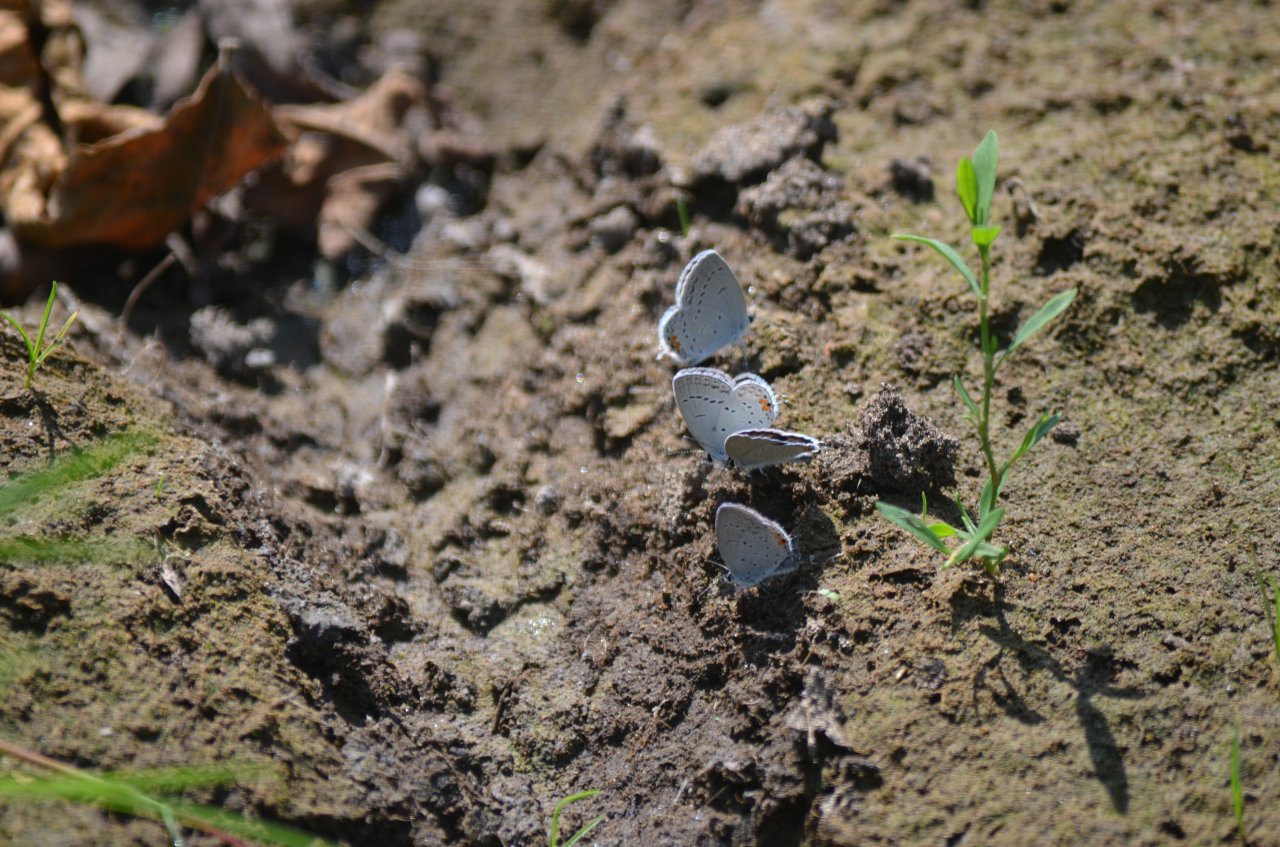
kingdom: Animalia
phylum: Arthropoda
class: Insecta
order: Lepidoptera
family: Lycaenidae
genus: Elkalyce
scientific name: Elkalyce comyntas
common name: Eastern Tailed-Blue
